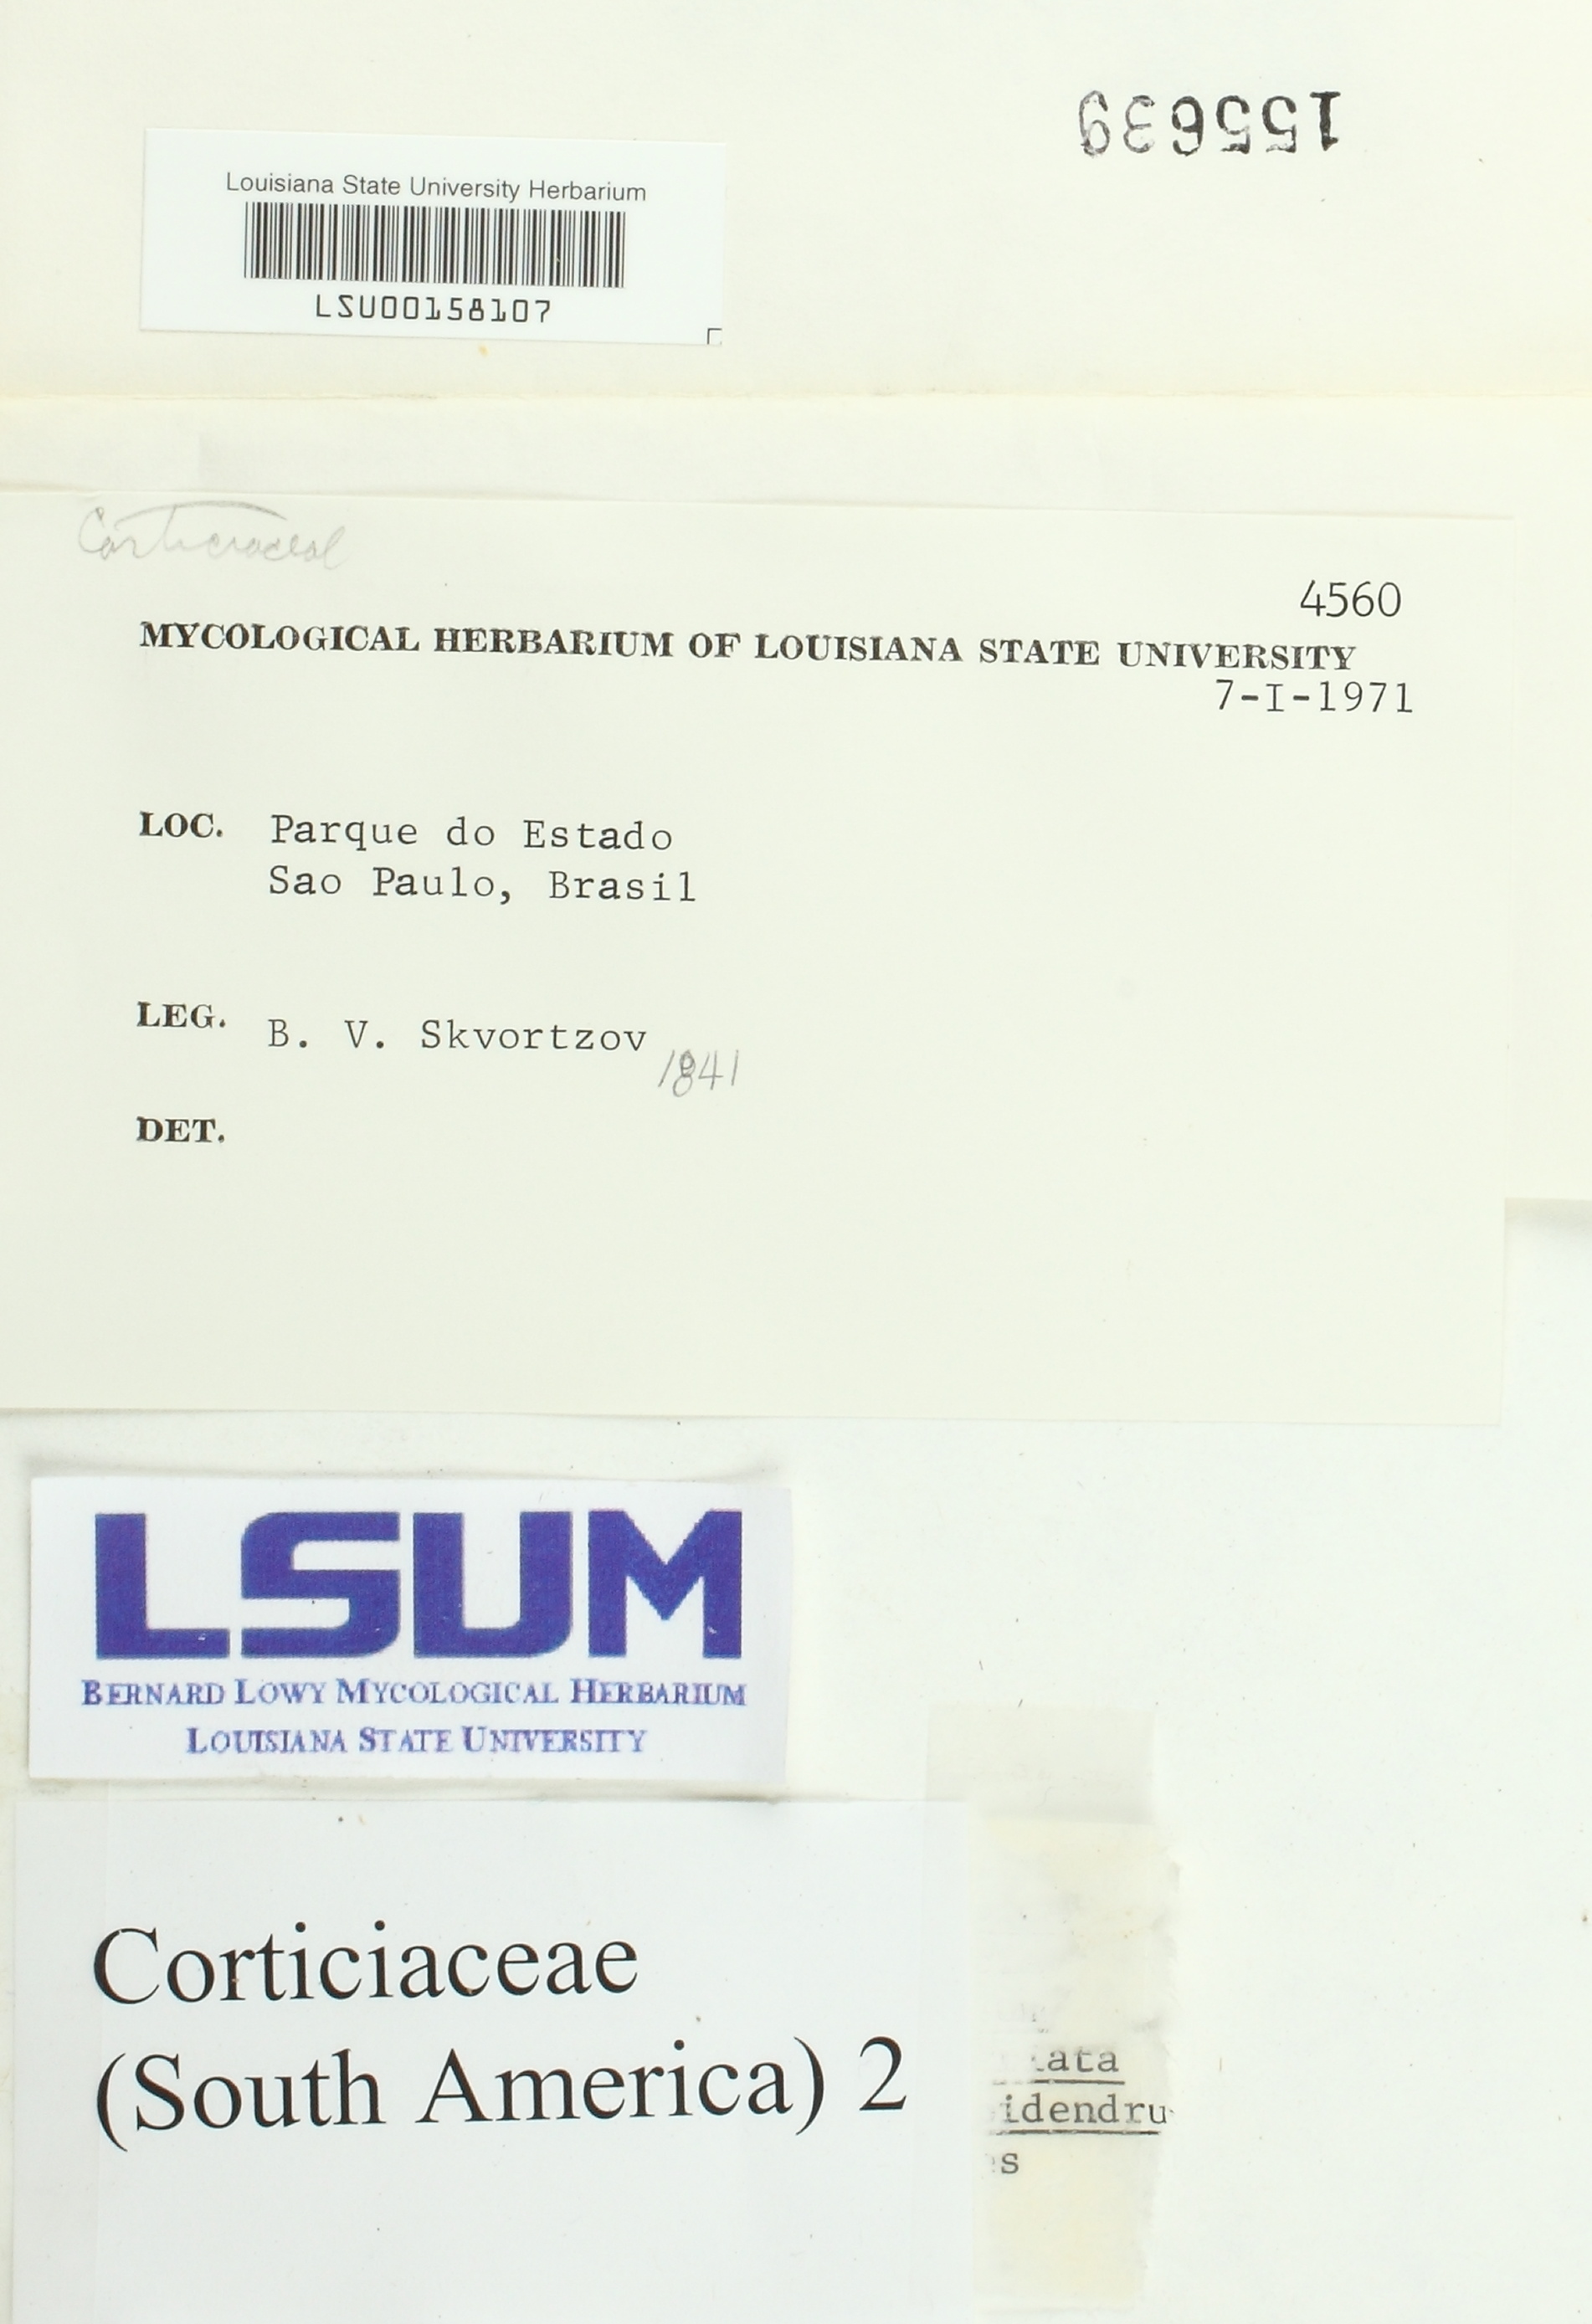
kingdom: Fungi
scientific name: Fungi
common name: Fungi
